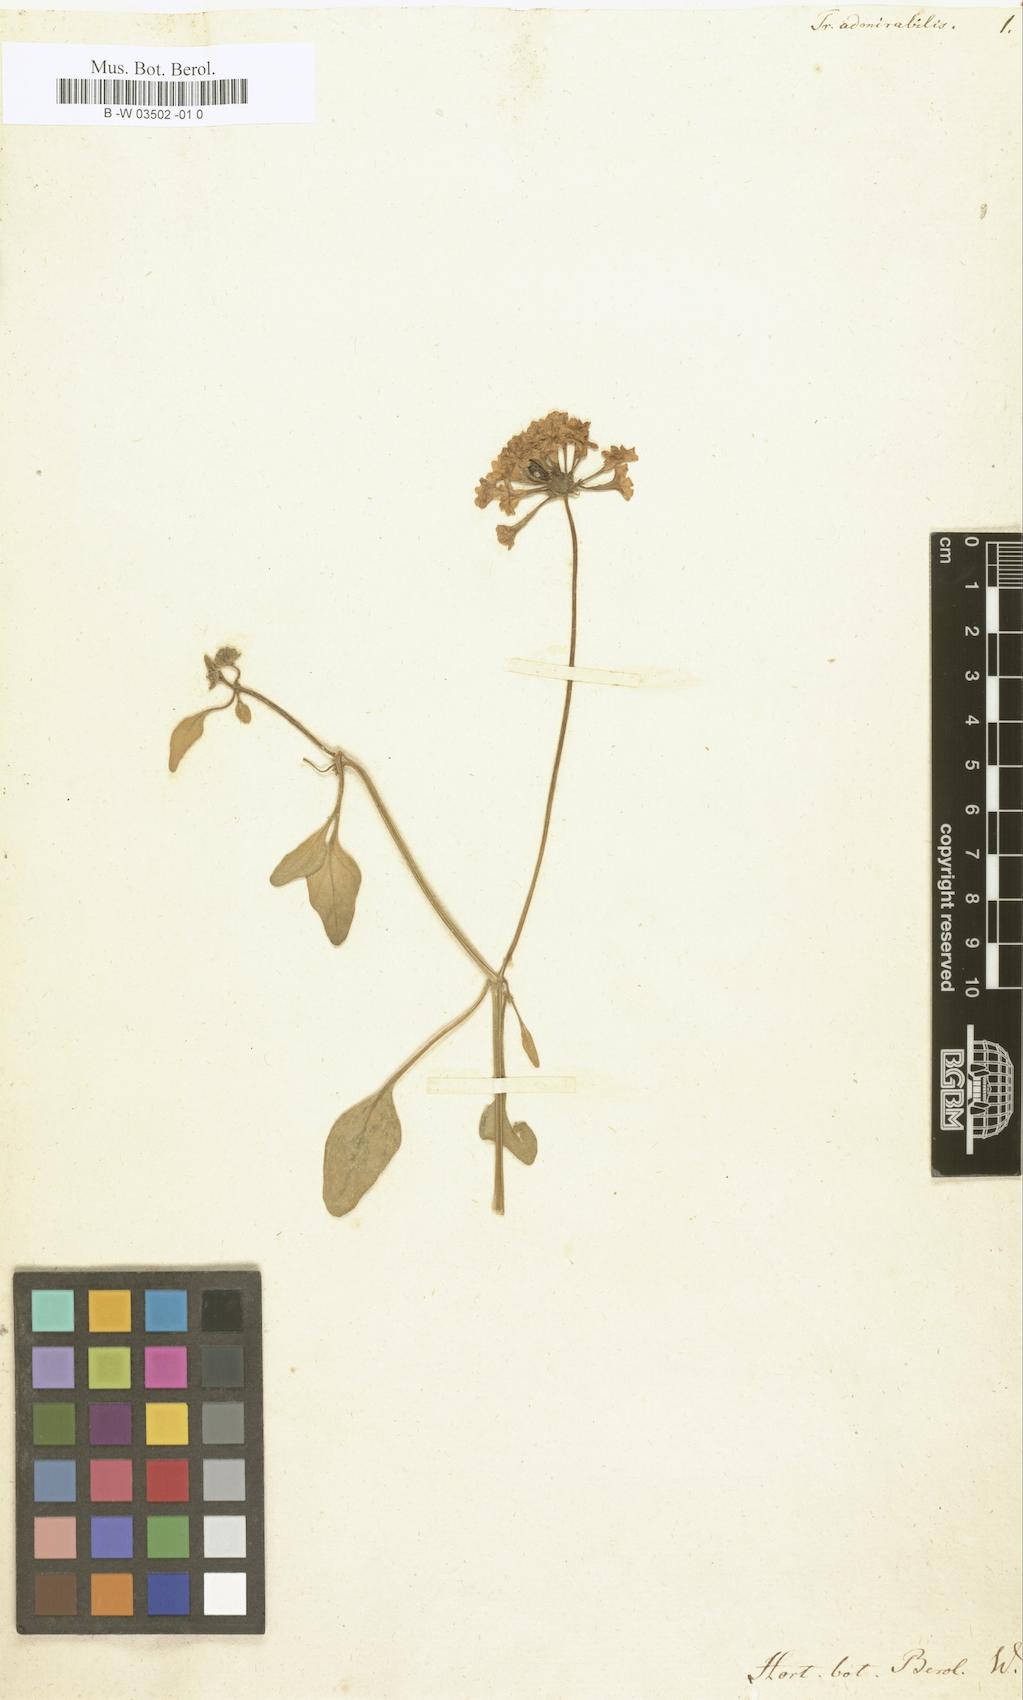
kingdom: Plantae
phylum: Tracheophyta
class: Magnoliopsida
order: Caryophyllales
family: Nyctaginaceae
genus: Abronia
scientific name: Abronia umbellata
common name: Sand-verbena
